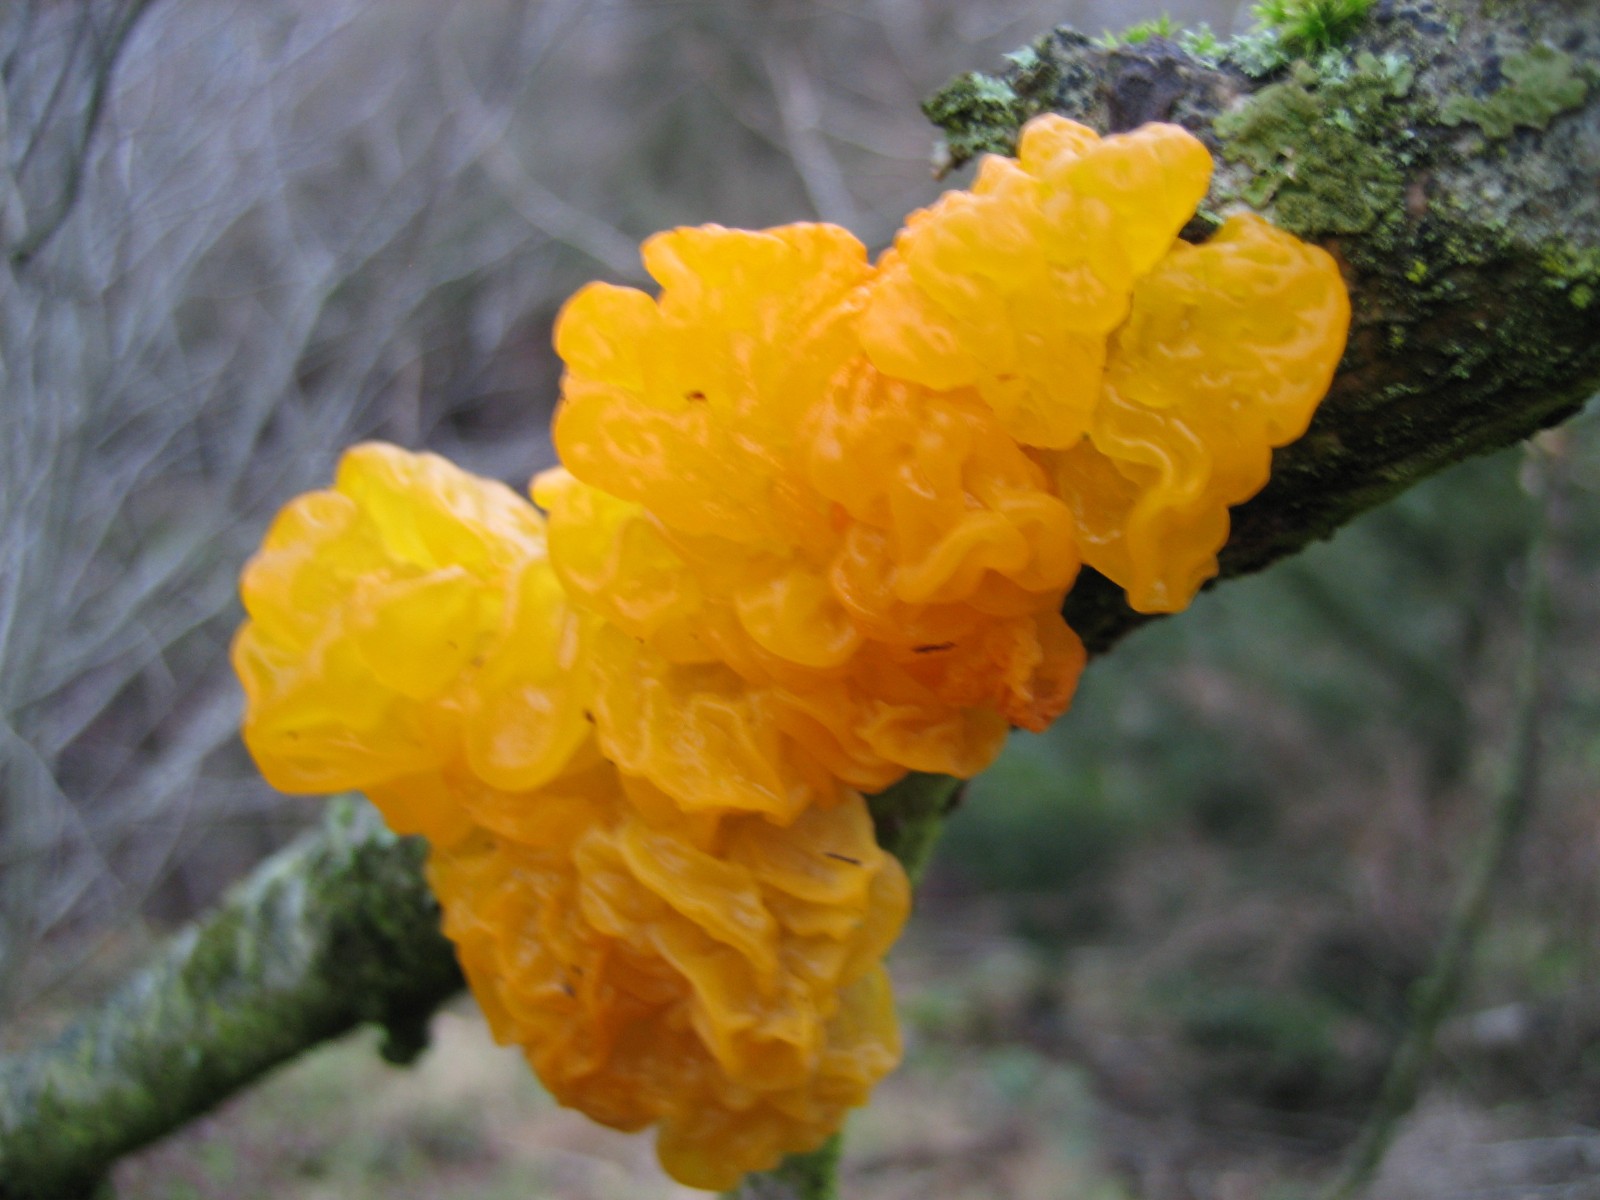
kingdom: Fungi
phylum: Basidiomycota
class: Tremellomycetes
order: Tremellales
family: Tremellaceae
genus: Tremella
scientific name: Tremella mesenterica
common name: gul bævresvamp
